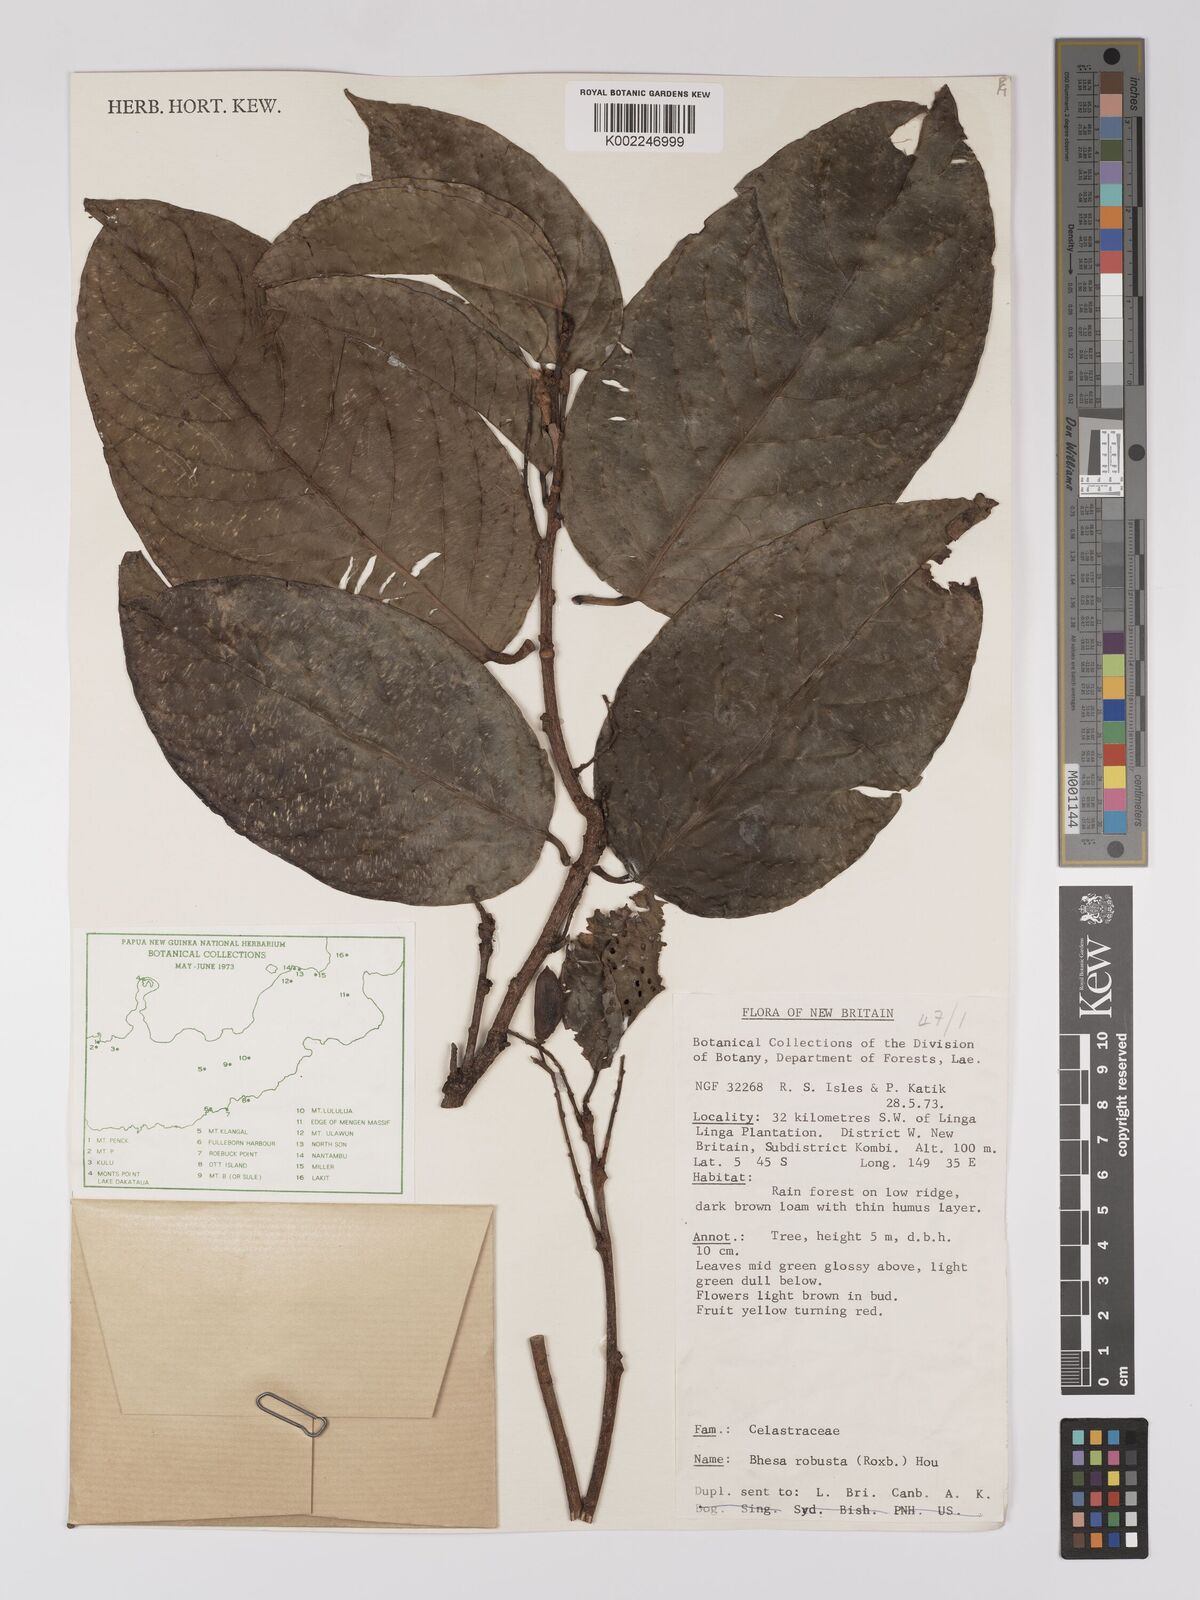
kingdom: Plantae
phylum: Tracheophyta
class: Magnoliopsida
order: Malpighiales
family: Centroplacaceae
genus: Bhesa
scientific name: Bhesa robusta
